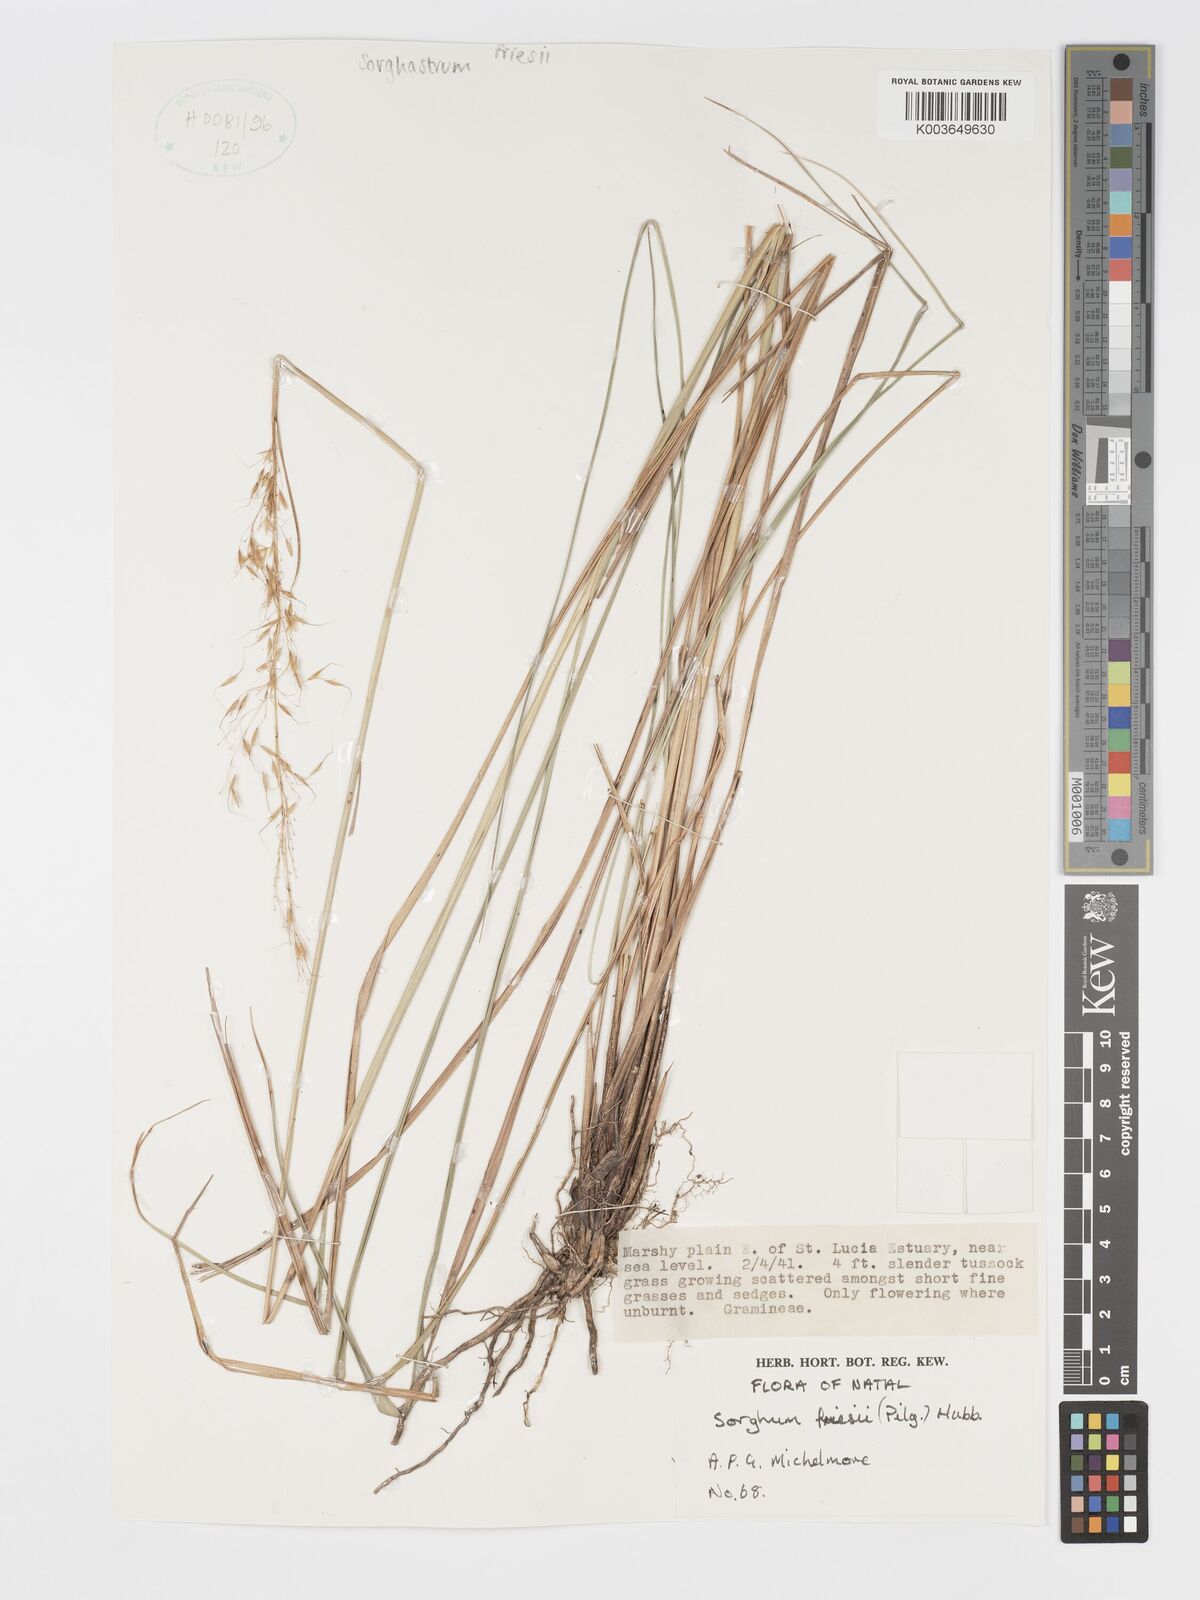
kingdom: Plantae
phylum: Tracheophyta
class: Liliopsida
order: Poales
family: Poaceae
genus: Sorghastrum
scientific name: Sorghastrum nudipes
